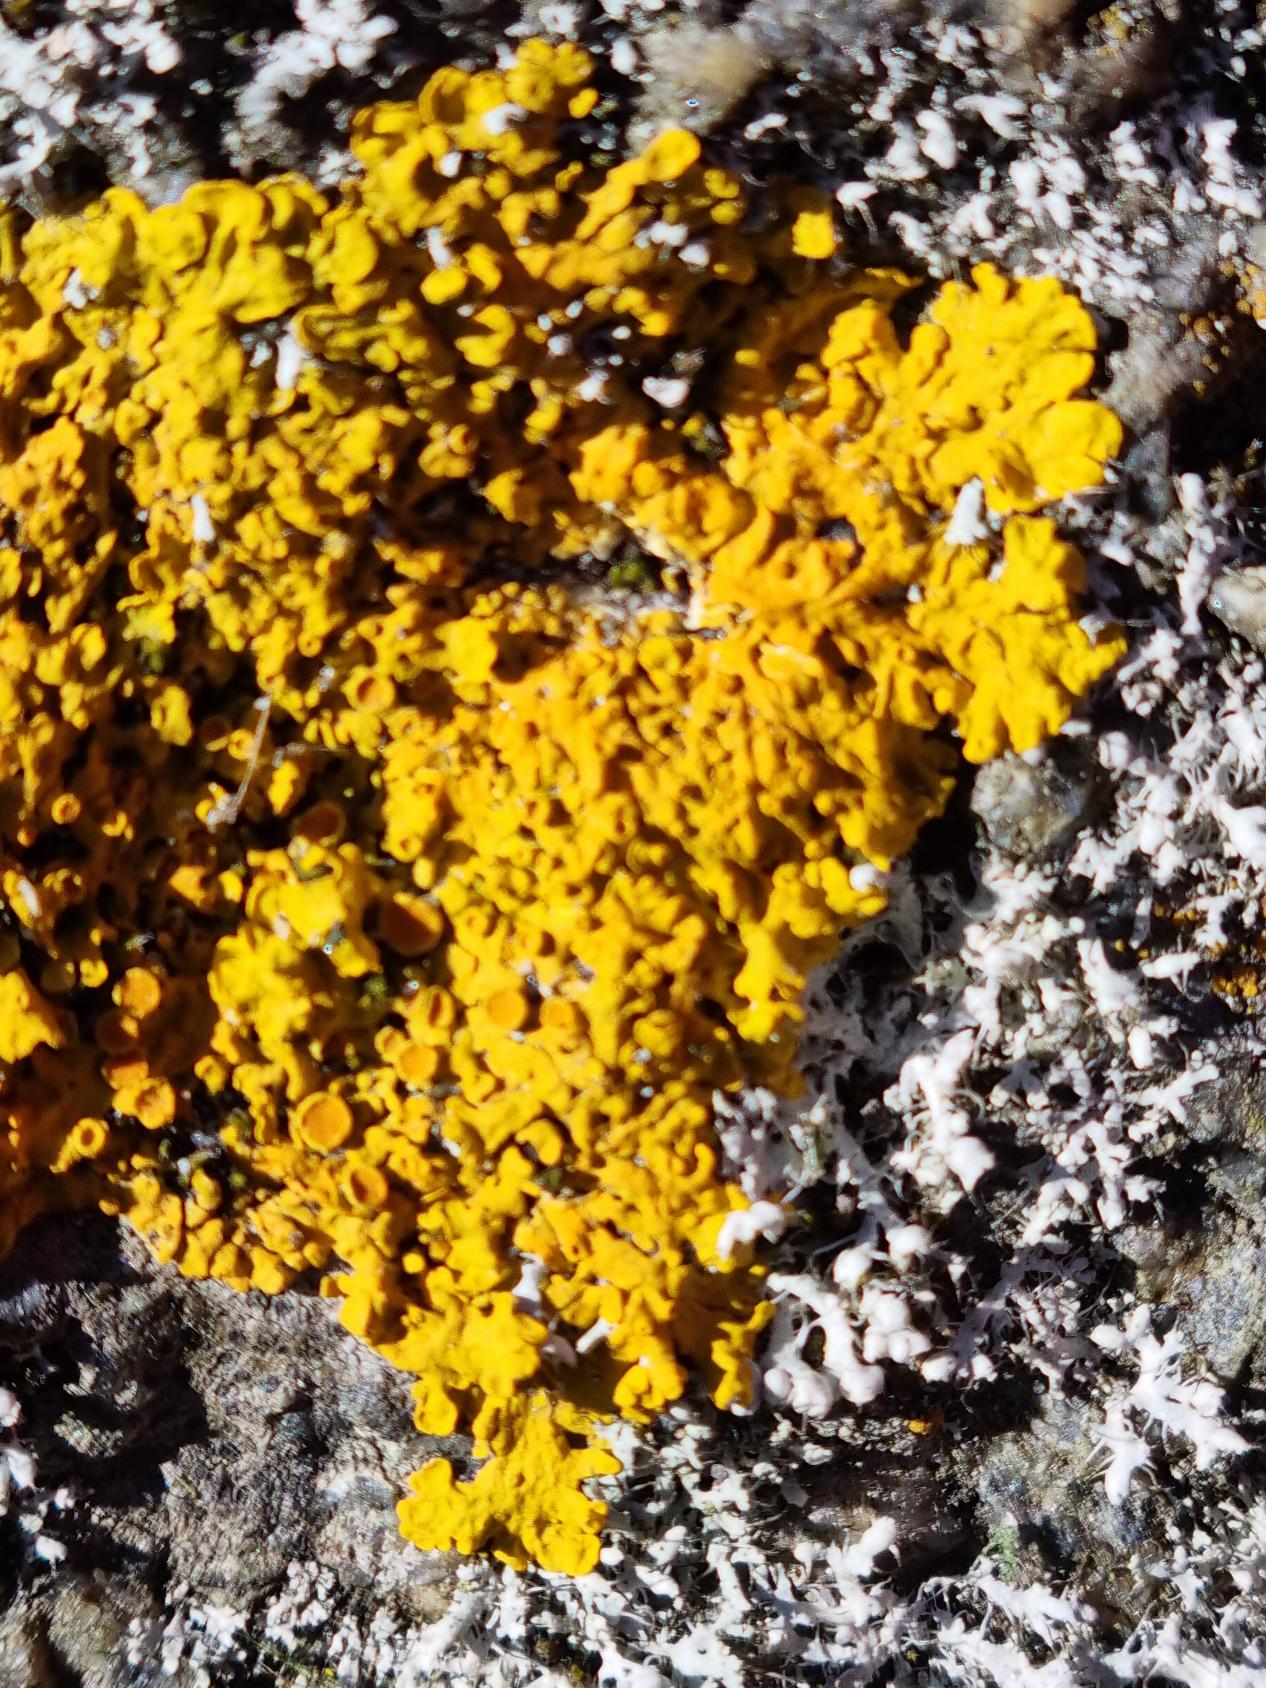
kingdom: Fungi
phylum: Ascomycota
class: Lecanoromycetes
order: Teloschistales
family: Teloschistaceae
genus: Xanthoria
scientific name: Xanthoria parietina
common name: Almindelig væggelav
